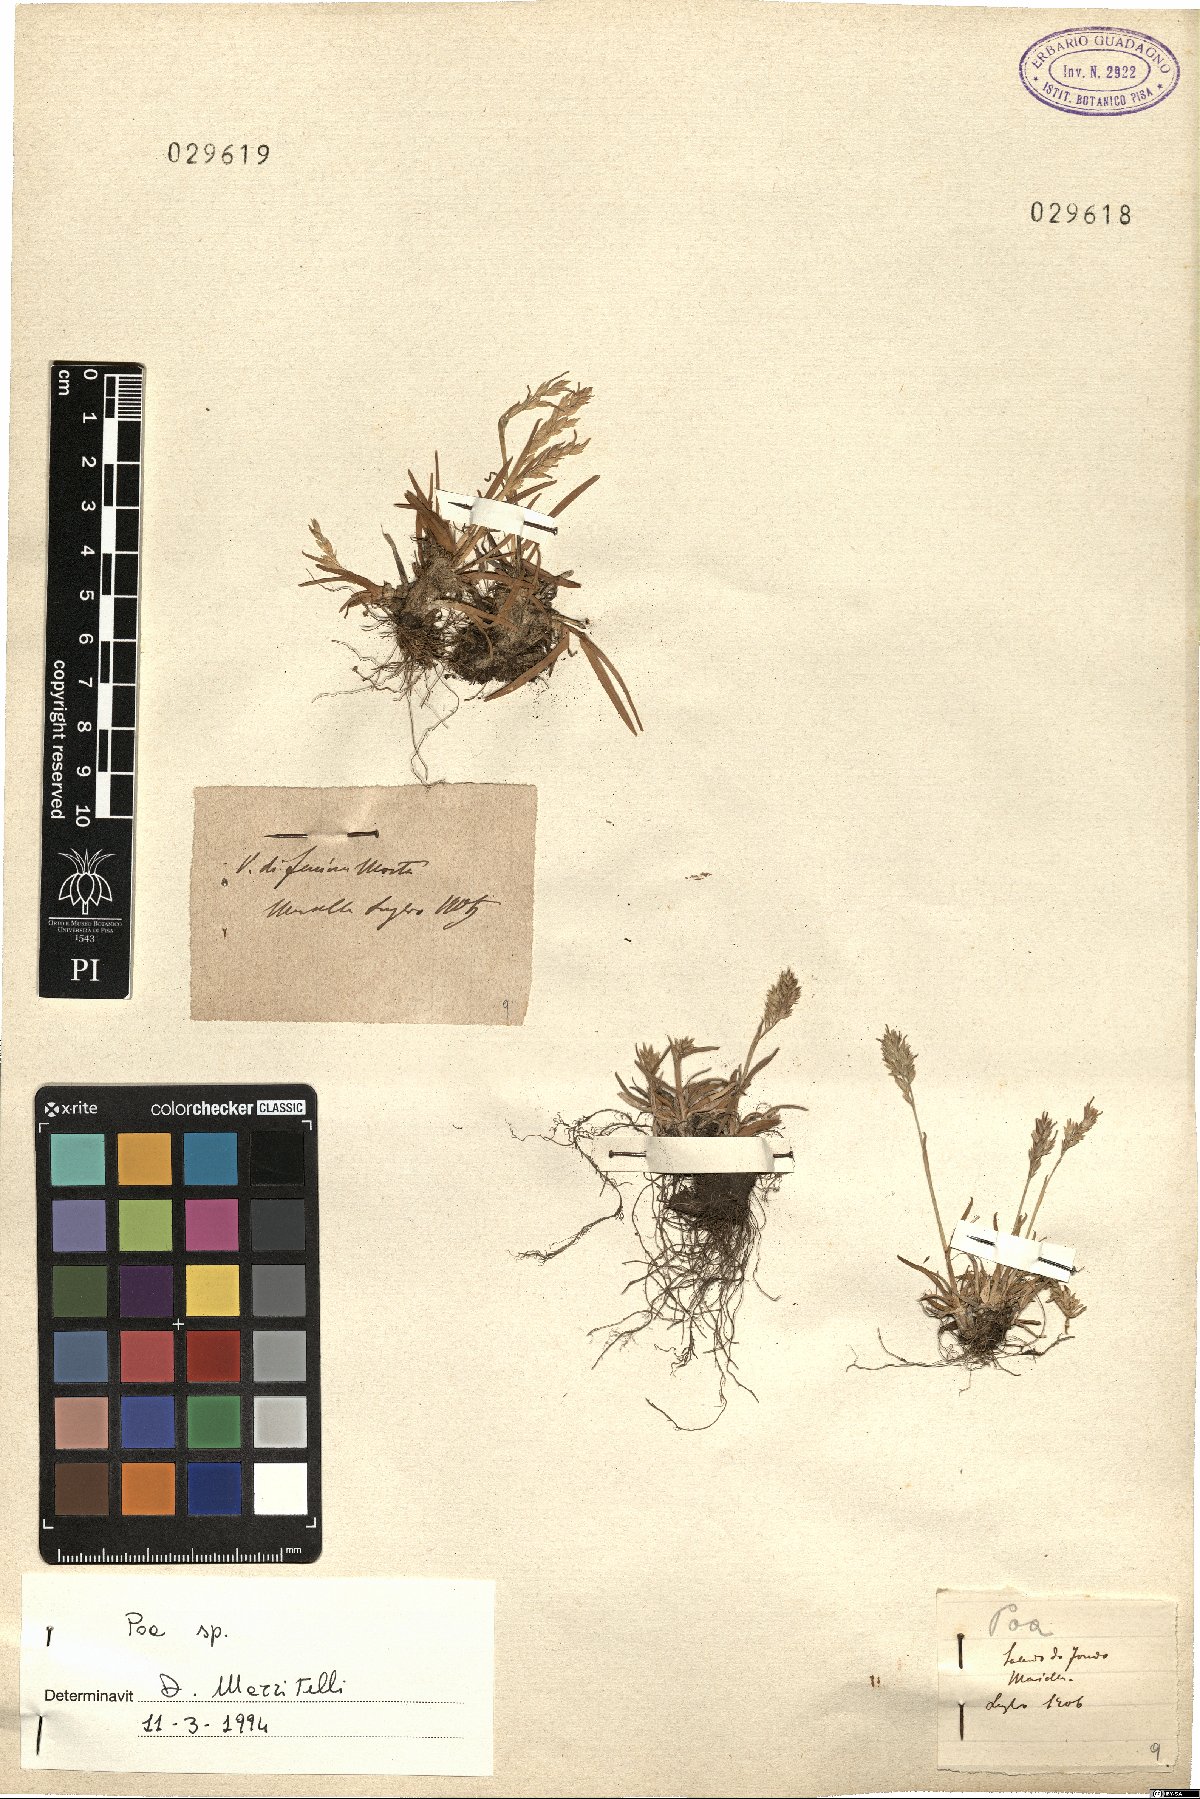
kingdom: Plantae
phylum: Tracheophyta
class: Liliopsida
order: Poales
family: Poaceae
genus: Poa
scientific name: Poa
